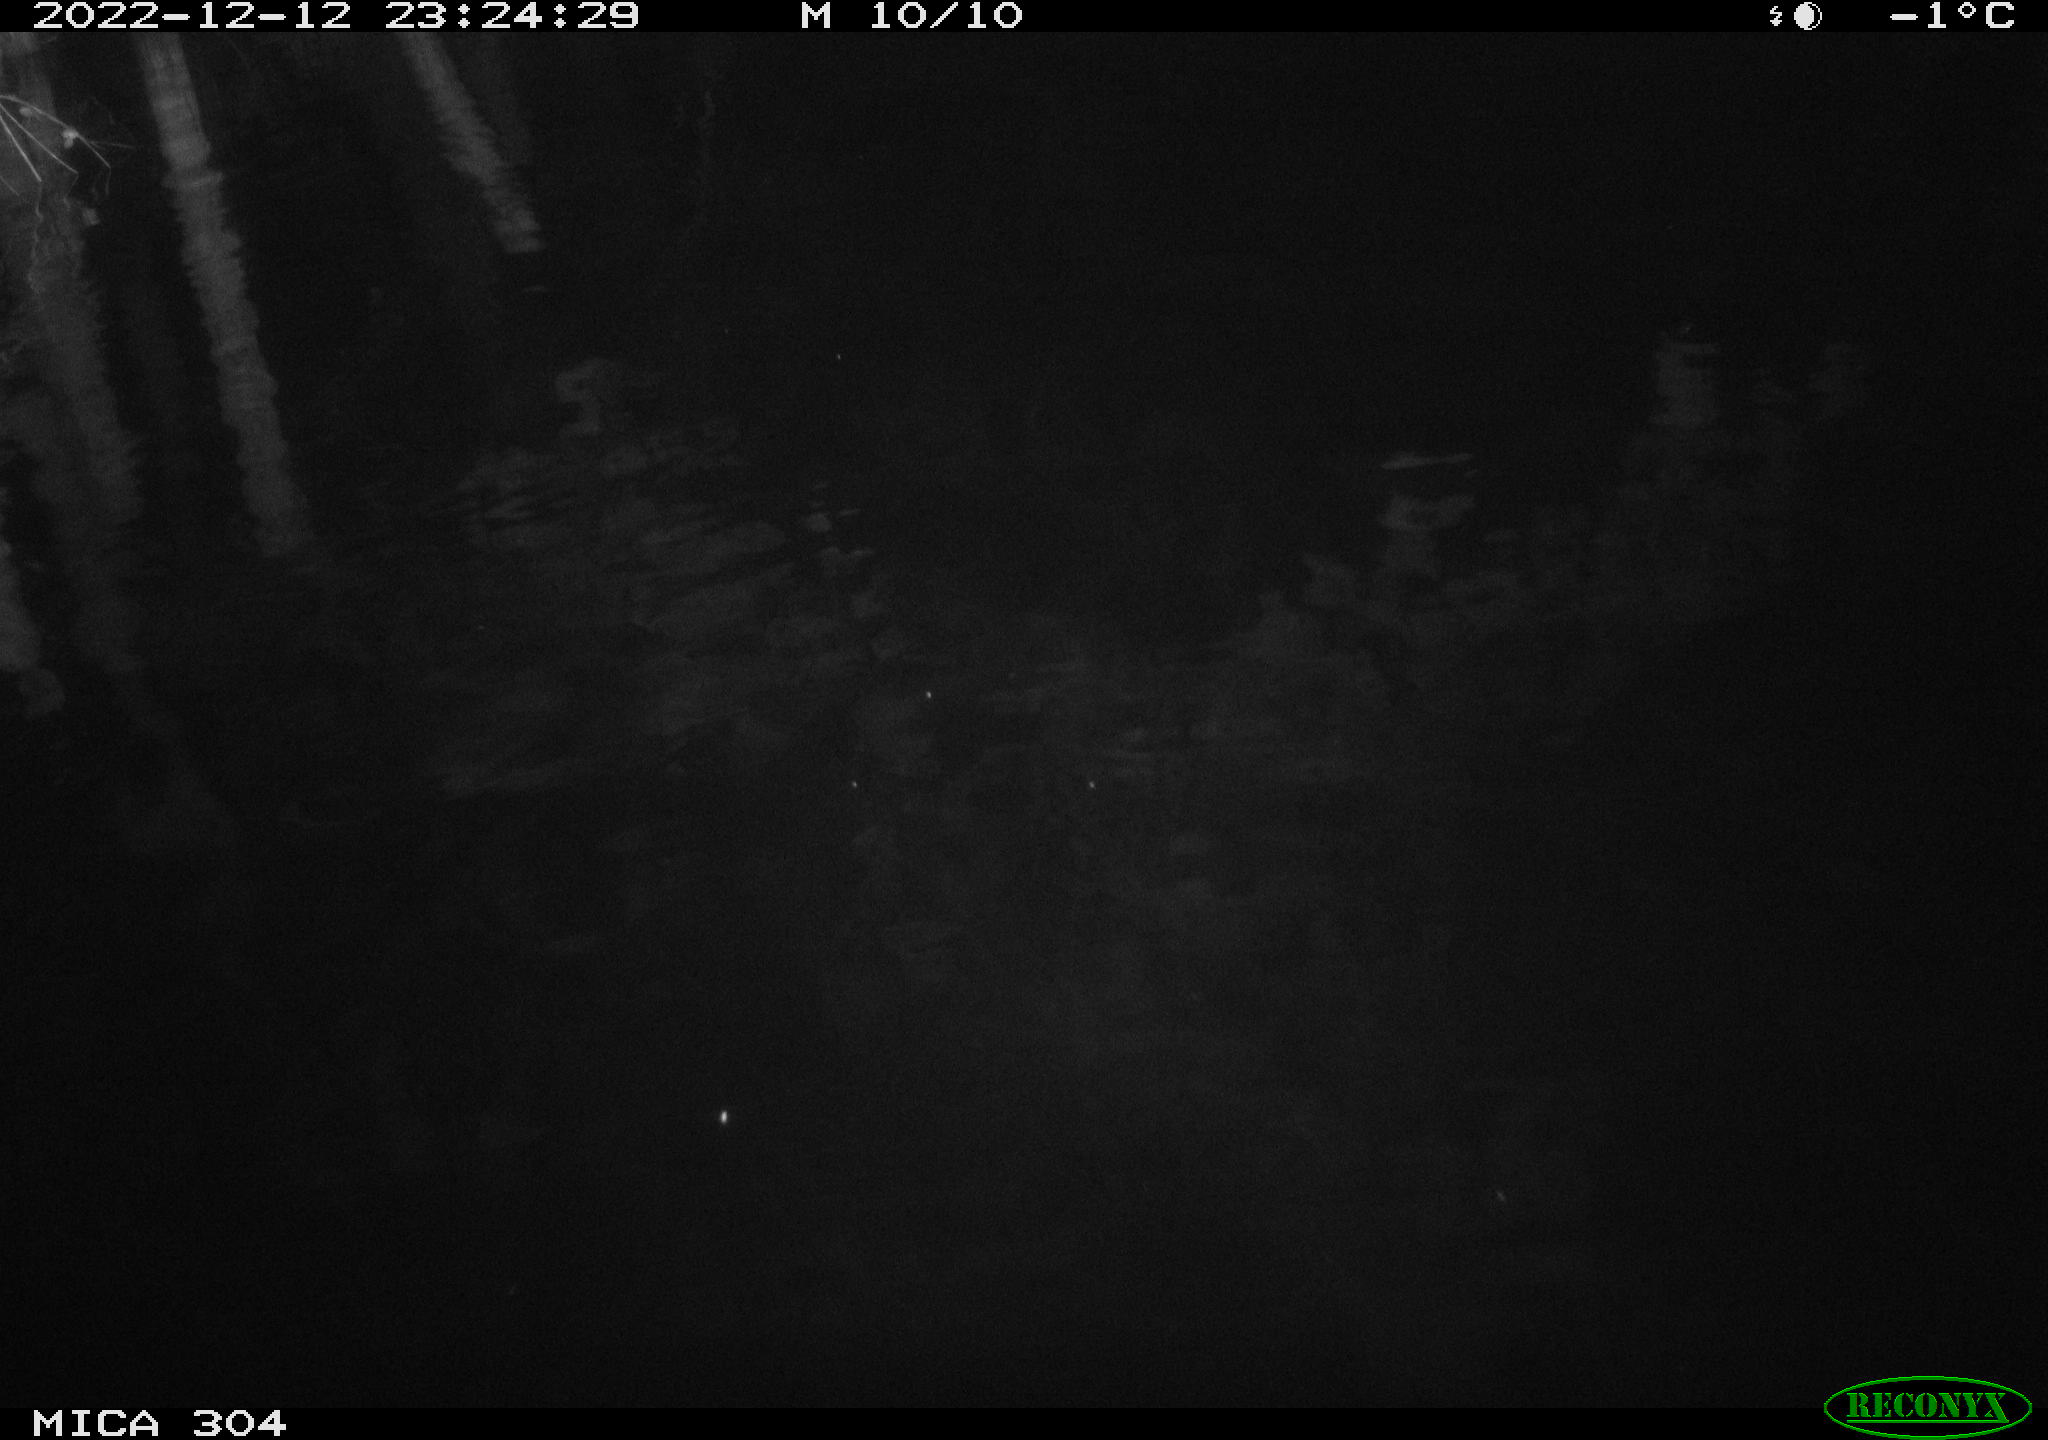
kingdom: Animalia
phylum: Chordata
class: Aves
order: Anseriformes
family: Anatidae
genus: Anas
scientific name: Anas
